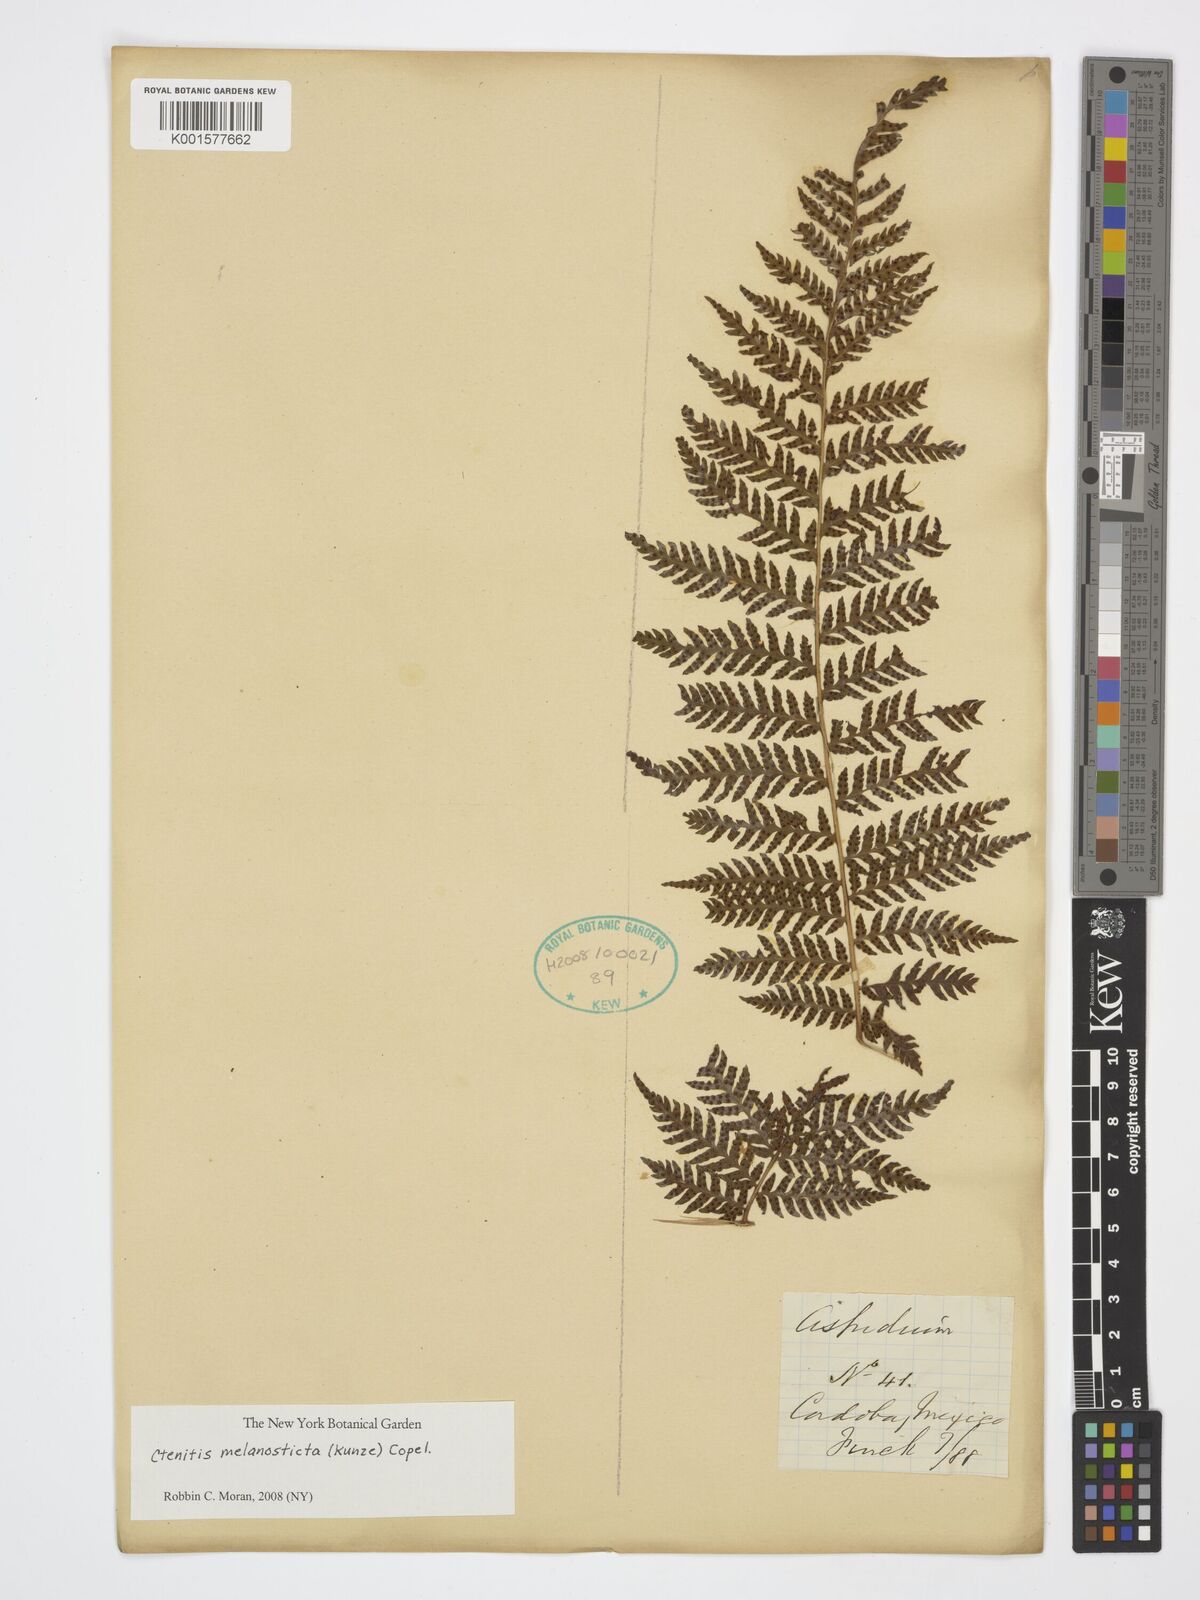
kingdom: Plantae
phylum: Tracheophyta
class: Polypodiopsida
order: Polypodiales
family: Dryopteridaceae
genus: Ctenitis
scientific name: Ctenitis melanosticta
